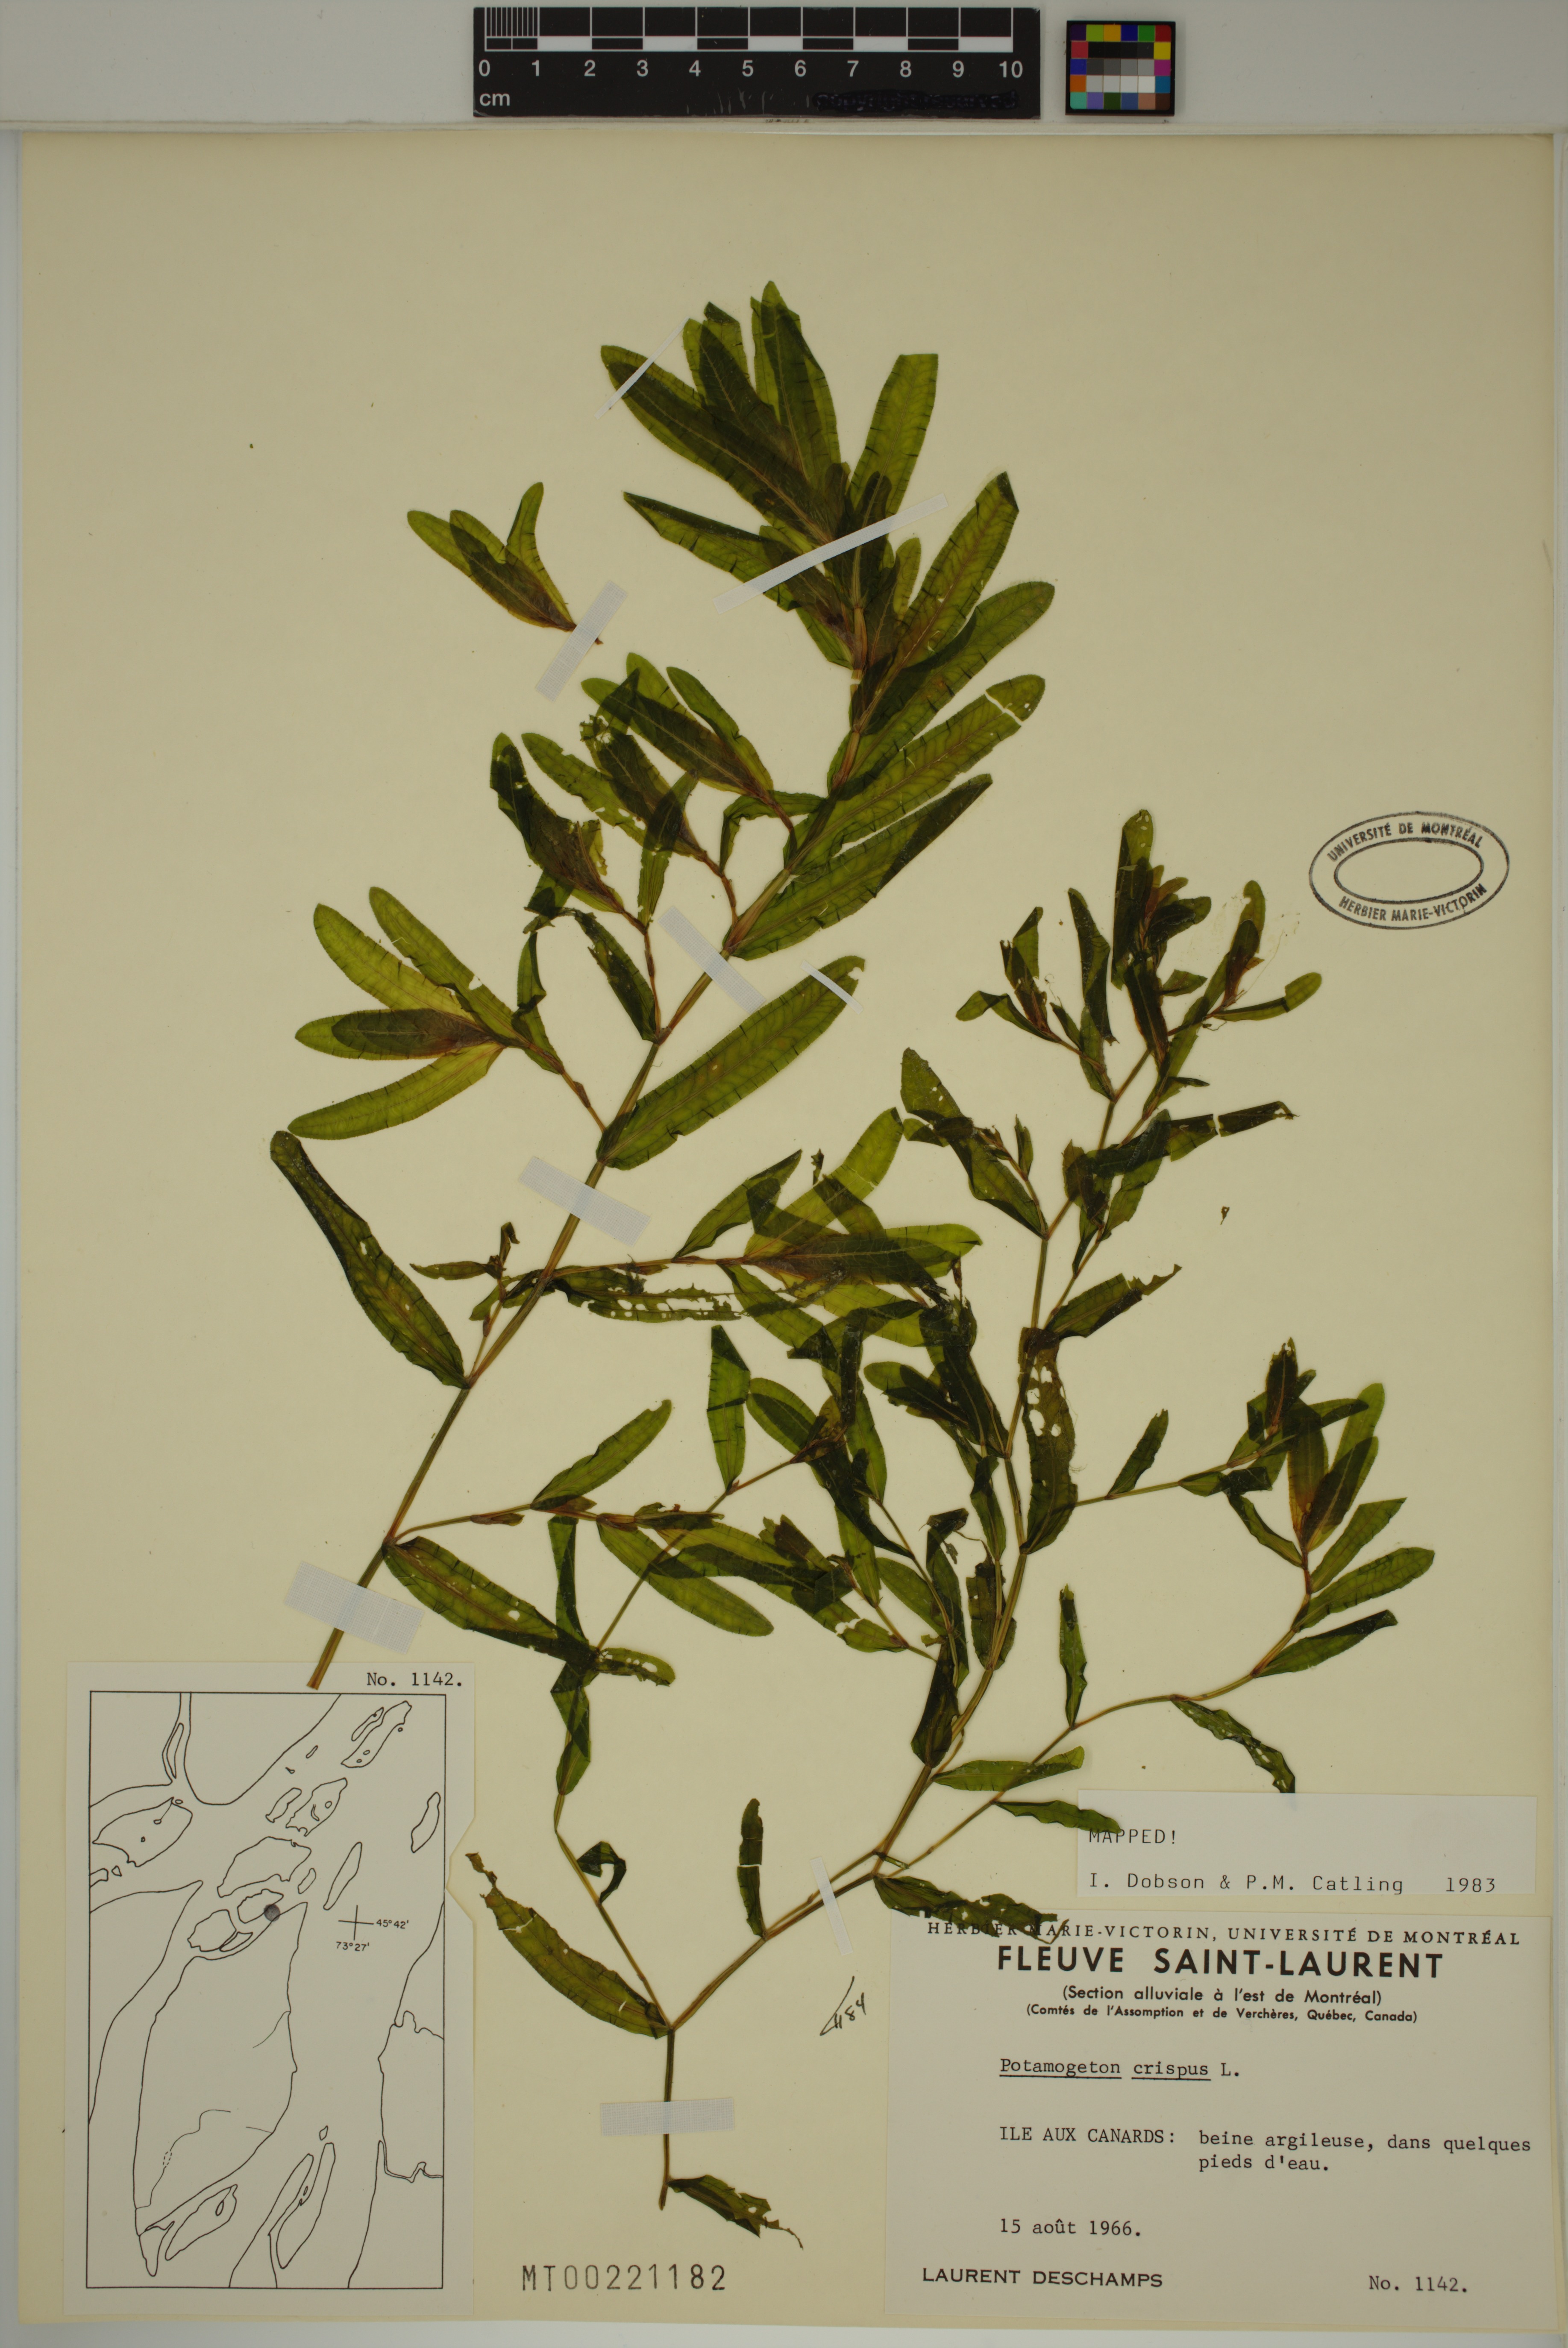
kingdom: Plantae
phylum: Tracheophyta
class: Liliopsida
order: Alismatales
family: Potamogetonaceae
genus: Potamogeton
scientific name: Potamogeton crispus
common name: Curled pondweed
